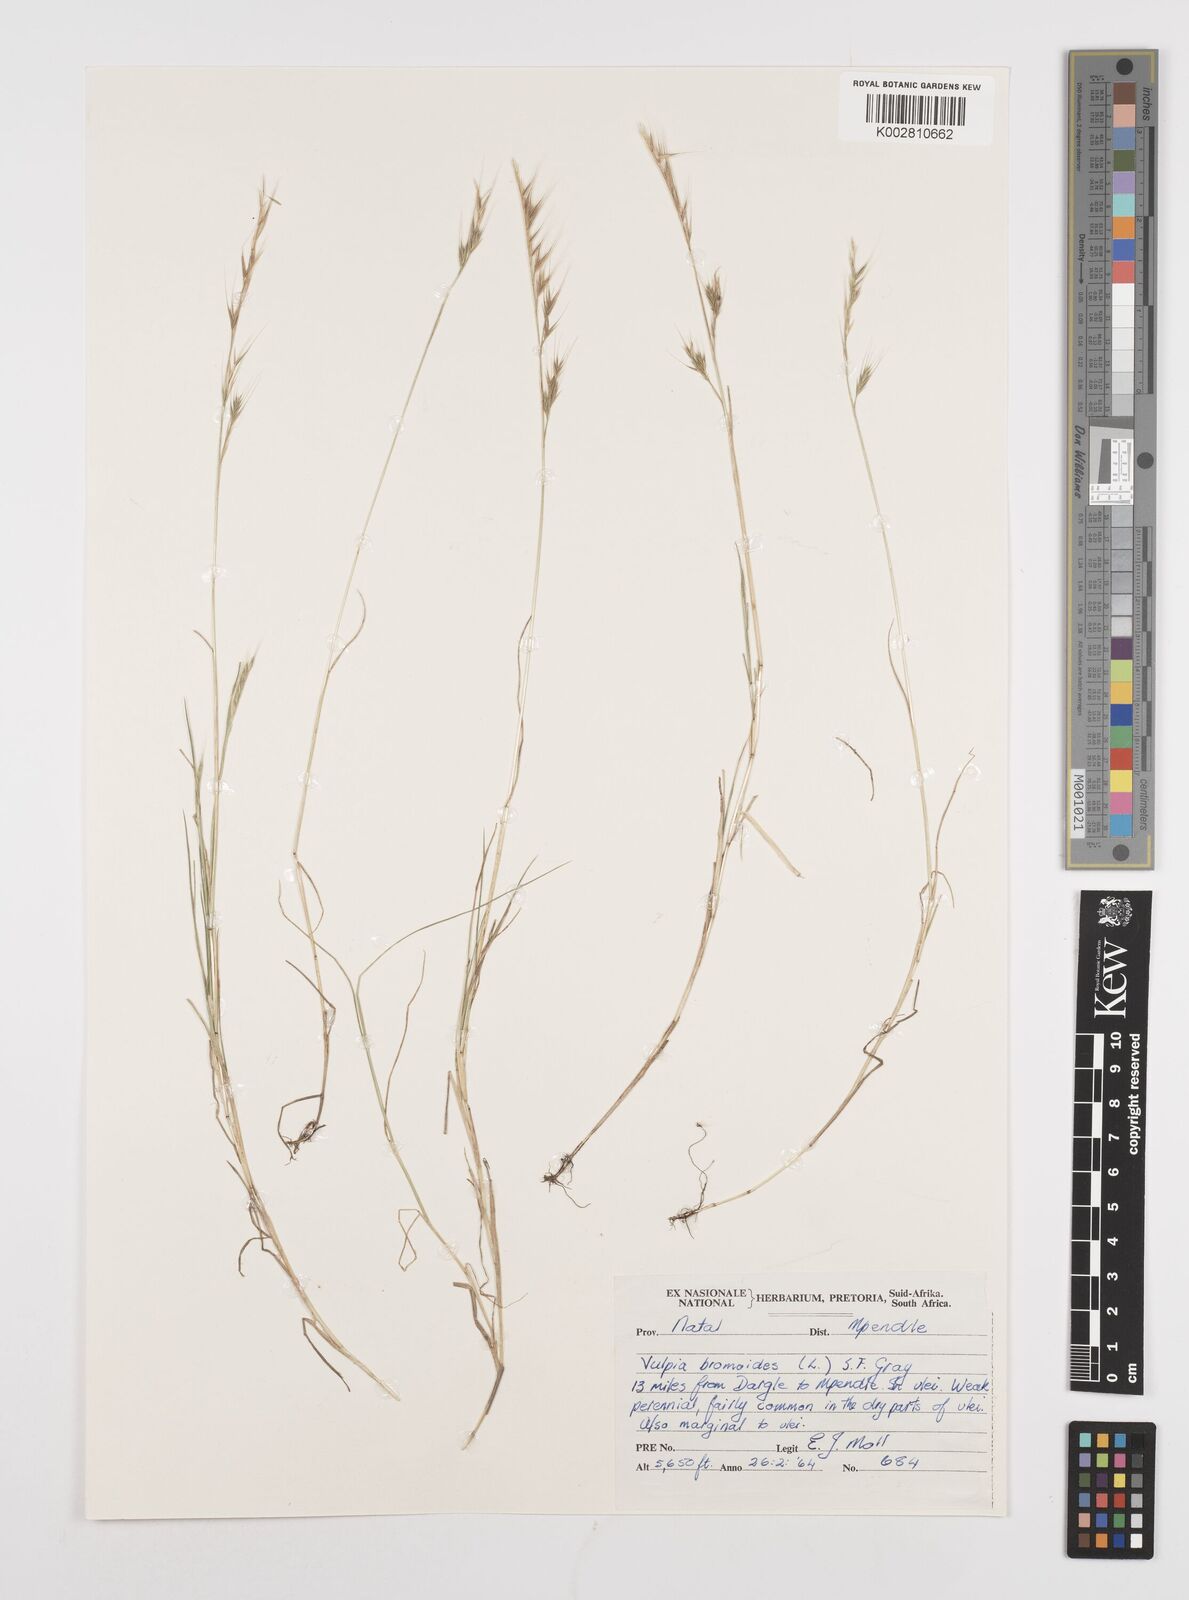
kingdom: Plantae
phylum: Tracheophyta
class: Liliopsida
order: Poales
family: Poaceae
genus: Festuca
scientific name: Festuca bromoides
